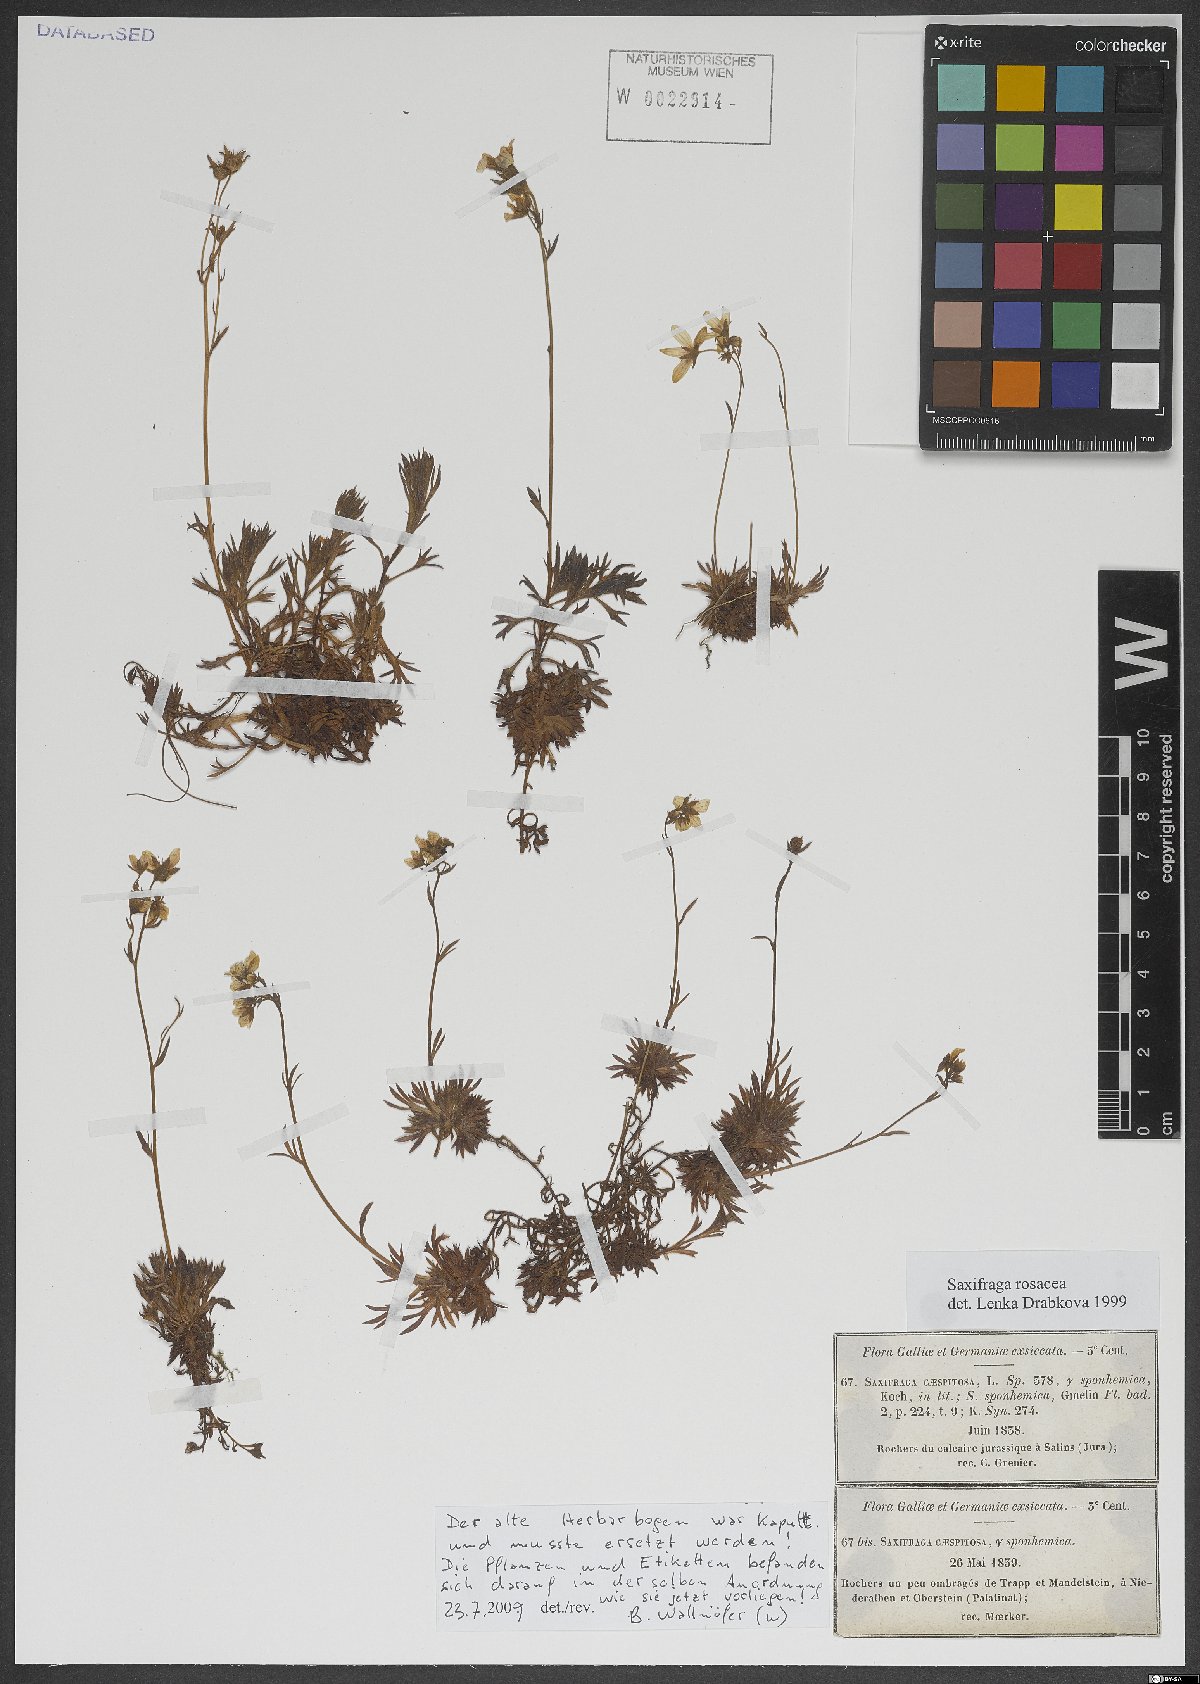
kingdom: Plantae
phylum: Tracheophyta
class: Magnoliopsida
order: Saxifragales
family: Saxifragaceae
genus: Saxifraga
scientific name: Saxifraga rosacea
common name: Irish saxifrage
